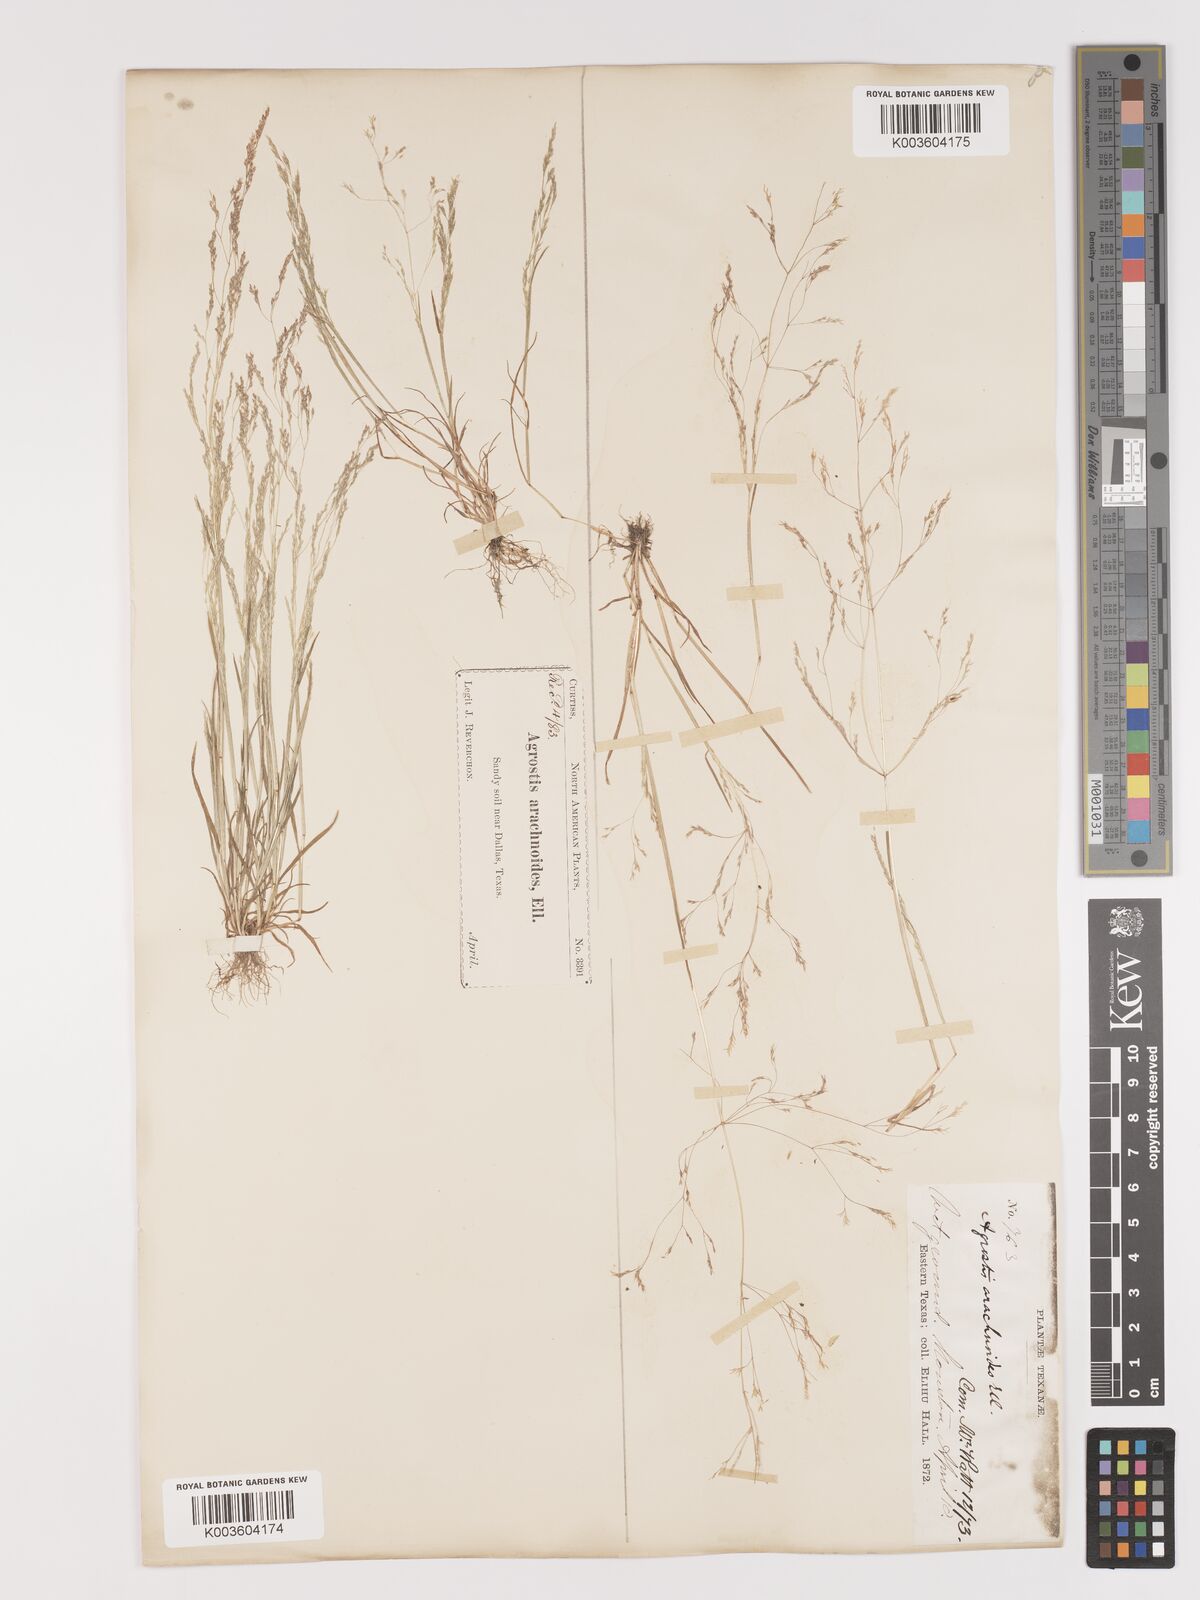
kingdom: Plantae
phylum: Tracheophyta
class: Liliopsida
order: Poales
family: Poaceae
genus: Agrostis
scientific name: Agrostis elliottiana
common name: Elliott's bent
